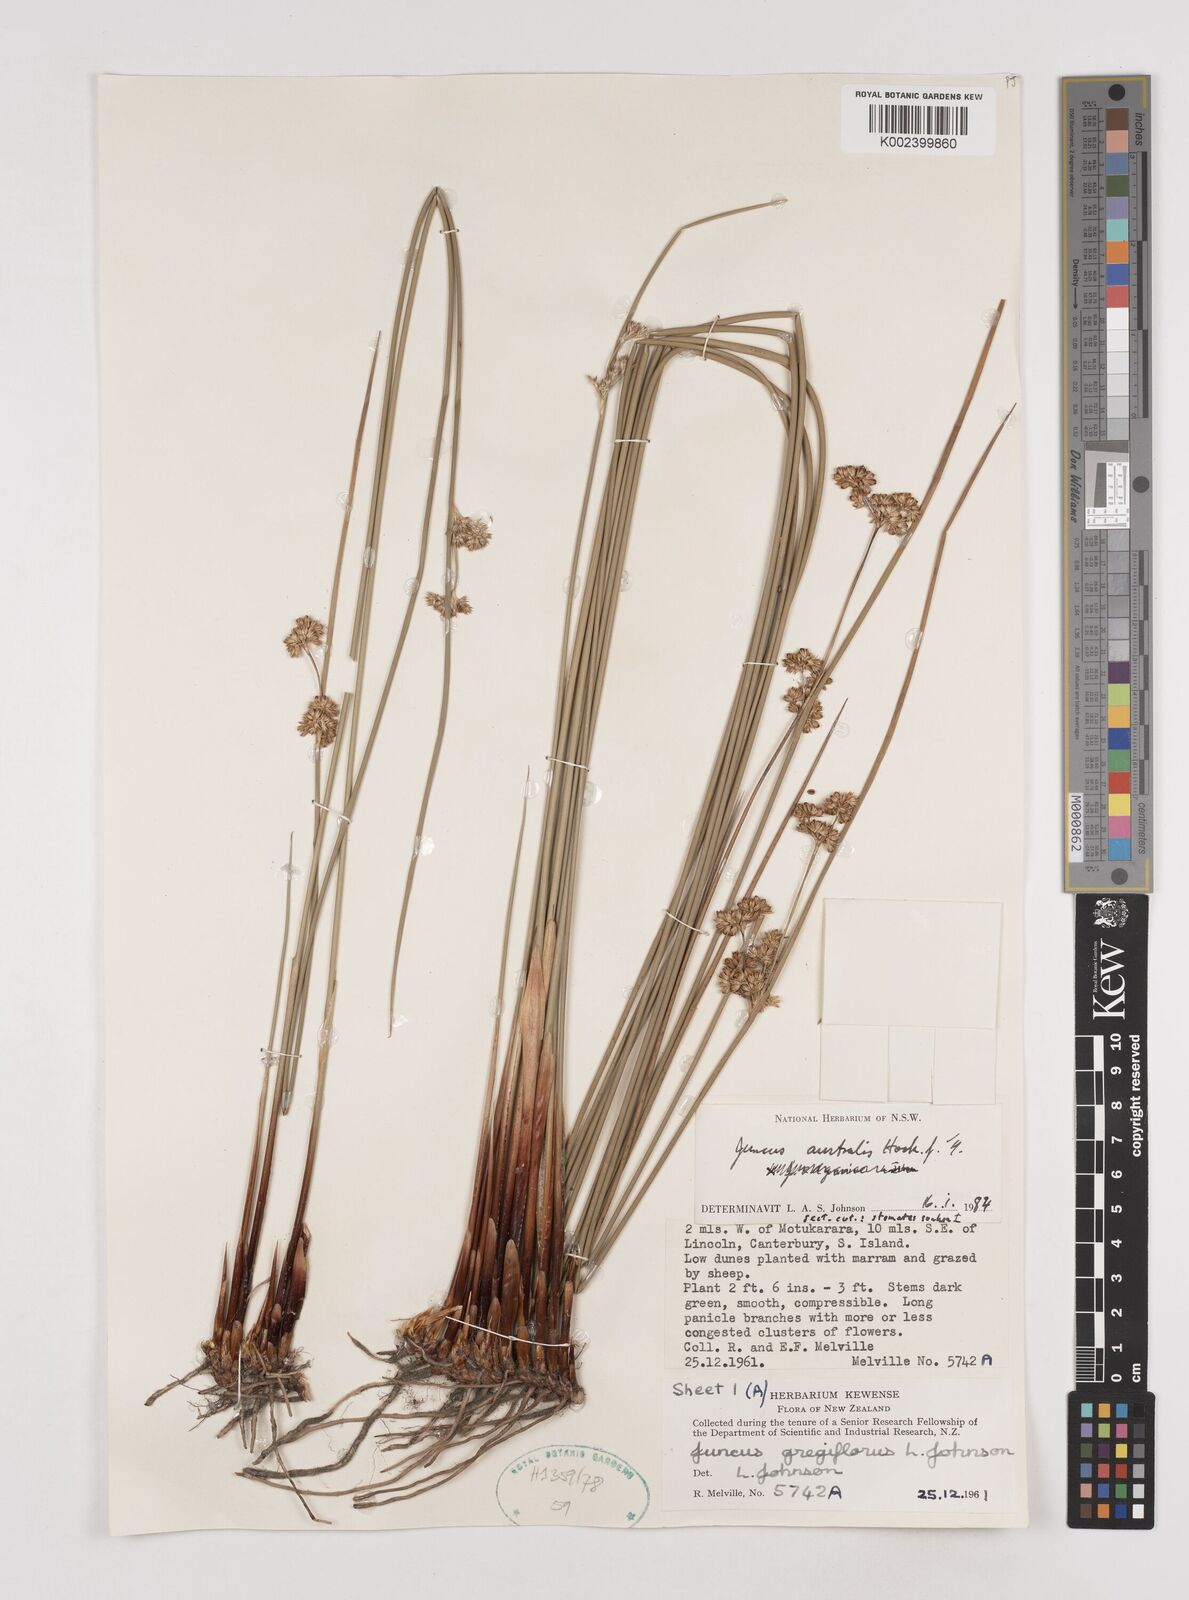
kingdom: Plantae
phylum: Tracheophyta
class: Liliopsida
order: Poales
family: Juncaceae
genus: Juncus
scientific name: Juncus australis
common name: Austral rush
